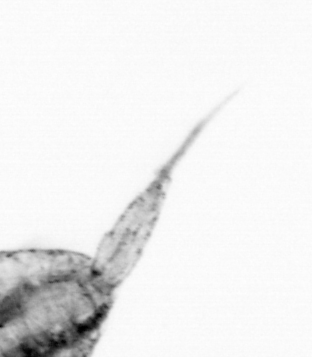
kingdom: Animalia
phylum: Arthropoda
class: Copepoda
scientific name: Copepoda
